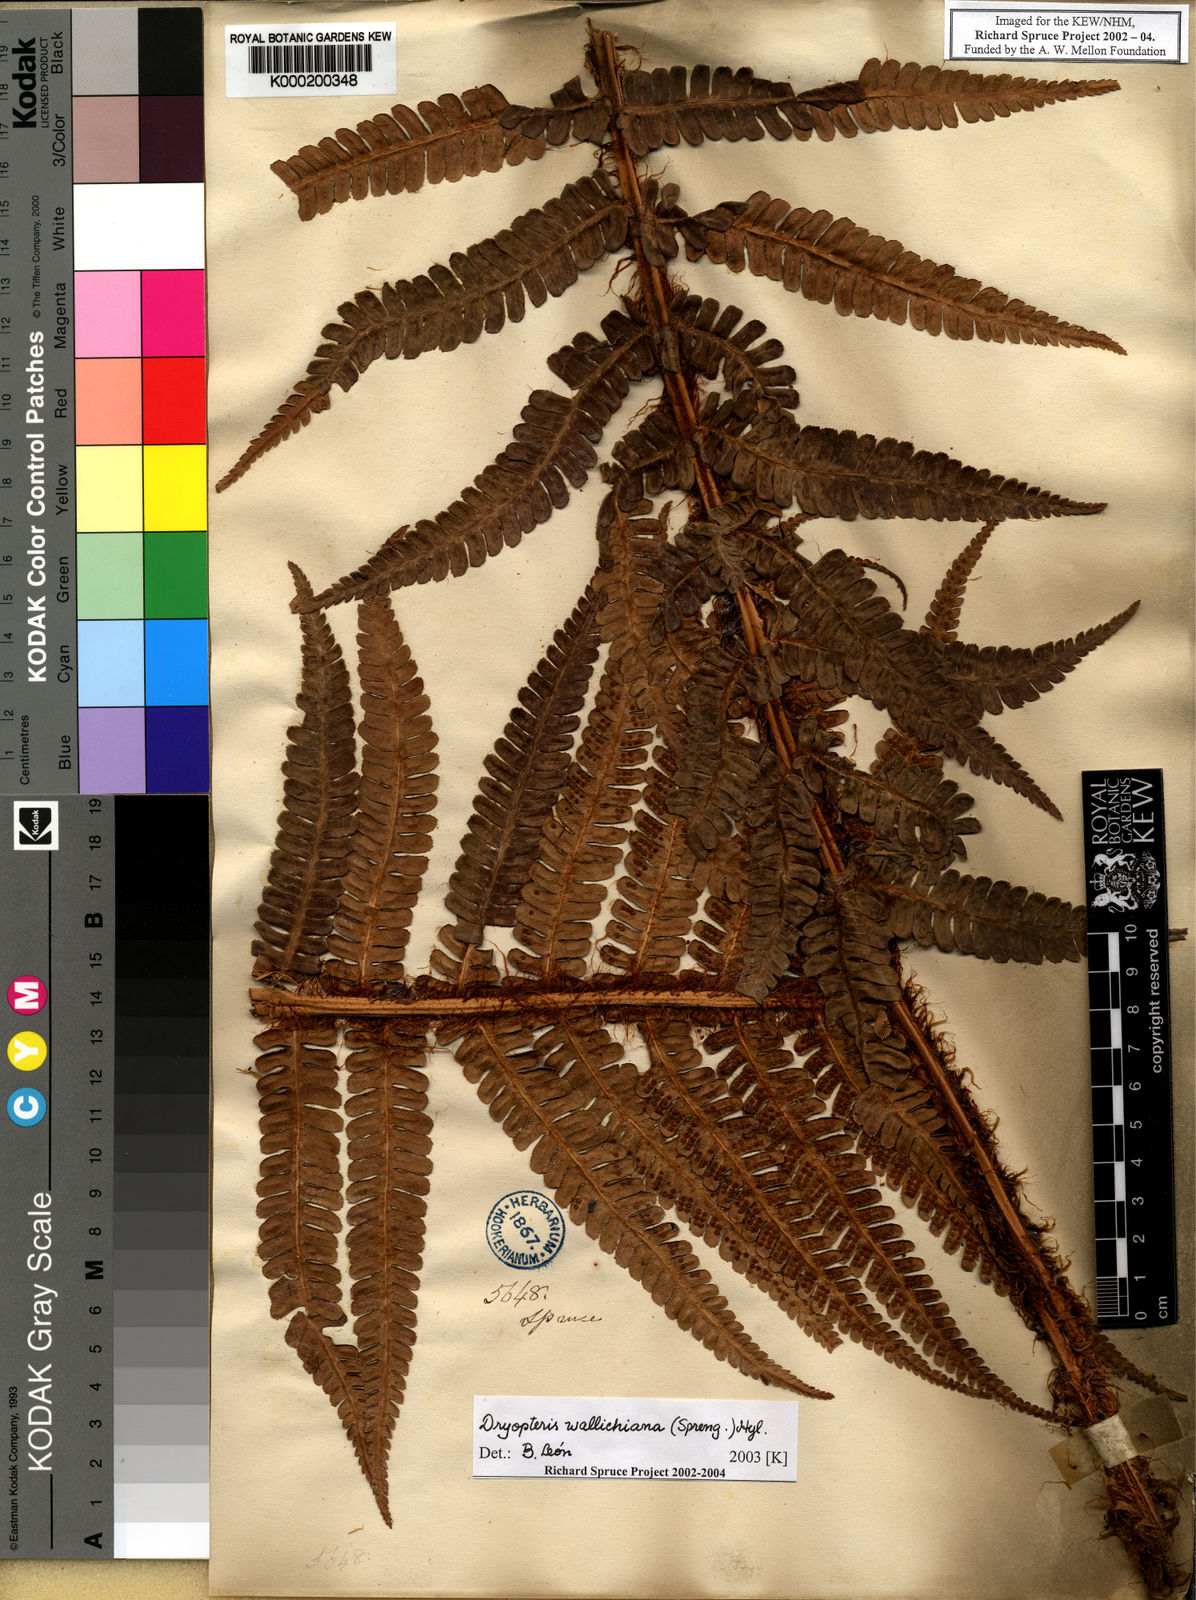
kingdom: Plantae
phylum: Tracheophyta
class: Polypodiopsida
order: Polypodiales
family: Dryopteridaceae
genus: Dryopteris
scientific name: Dryopteris
